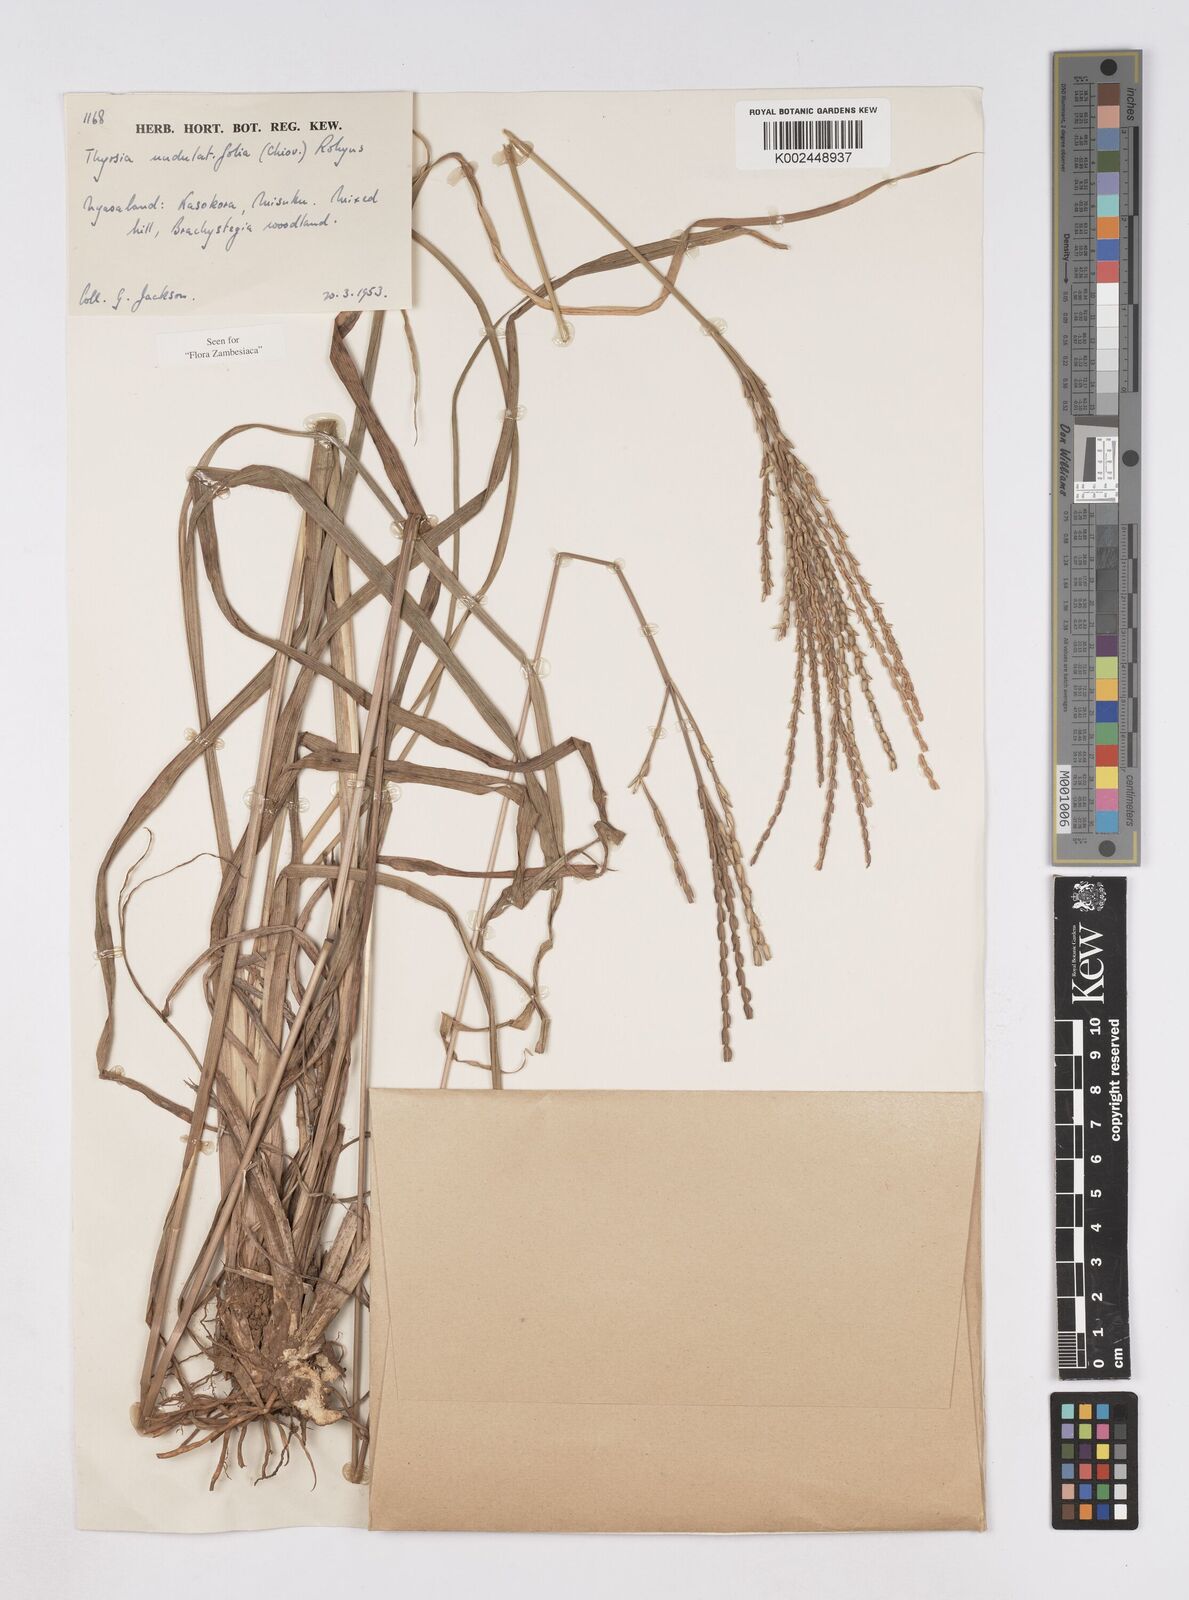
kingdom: Plantae
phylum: Tracheophyta
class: Liliopsida
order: Poales
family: Poaceae
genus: Thyrsia
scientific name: Thyrsia huillensis
